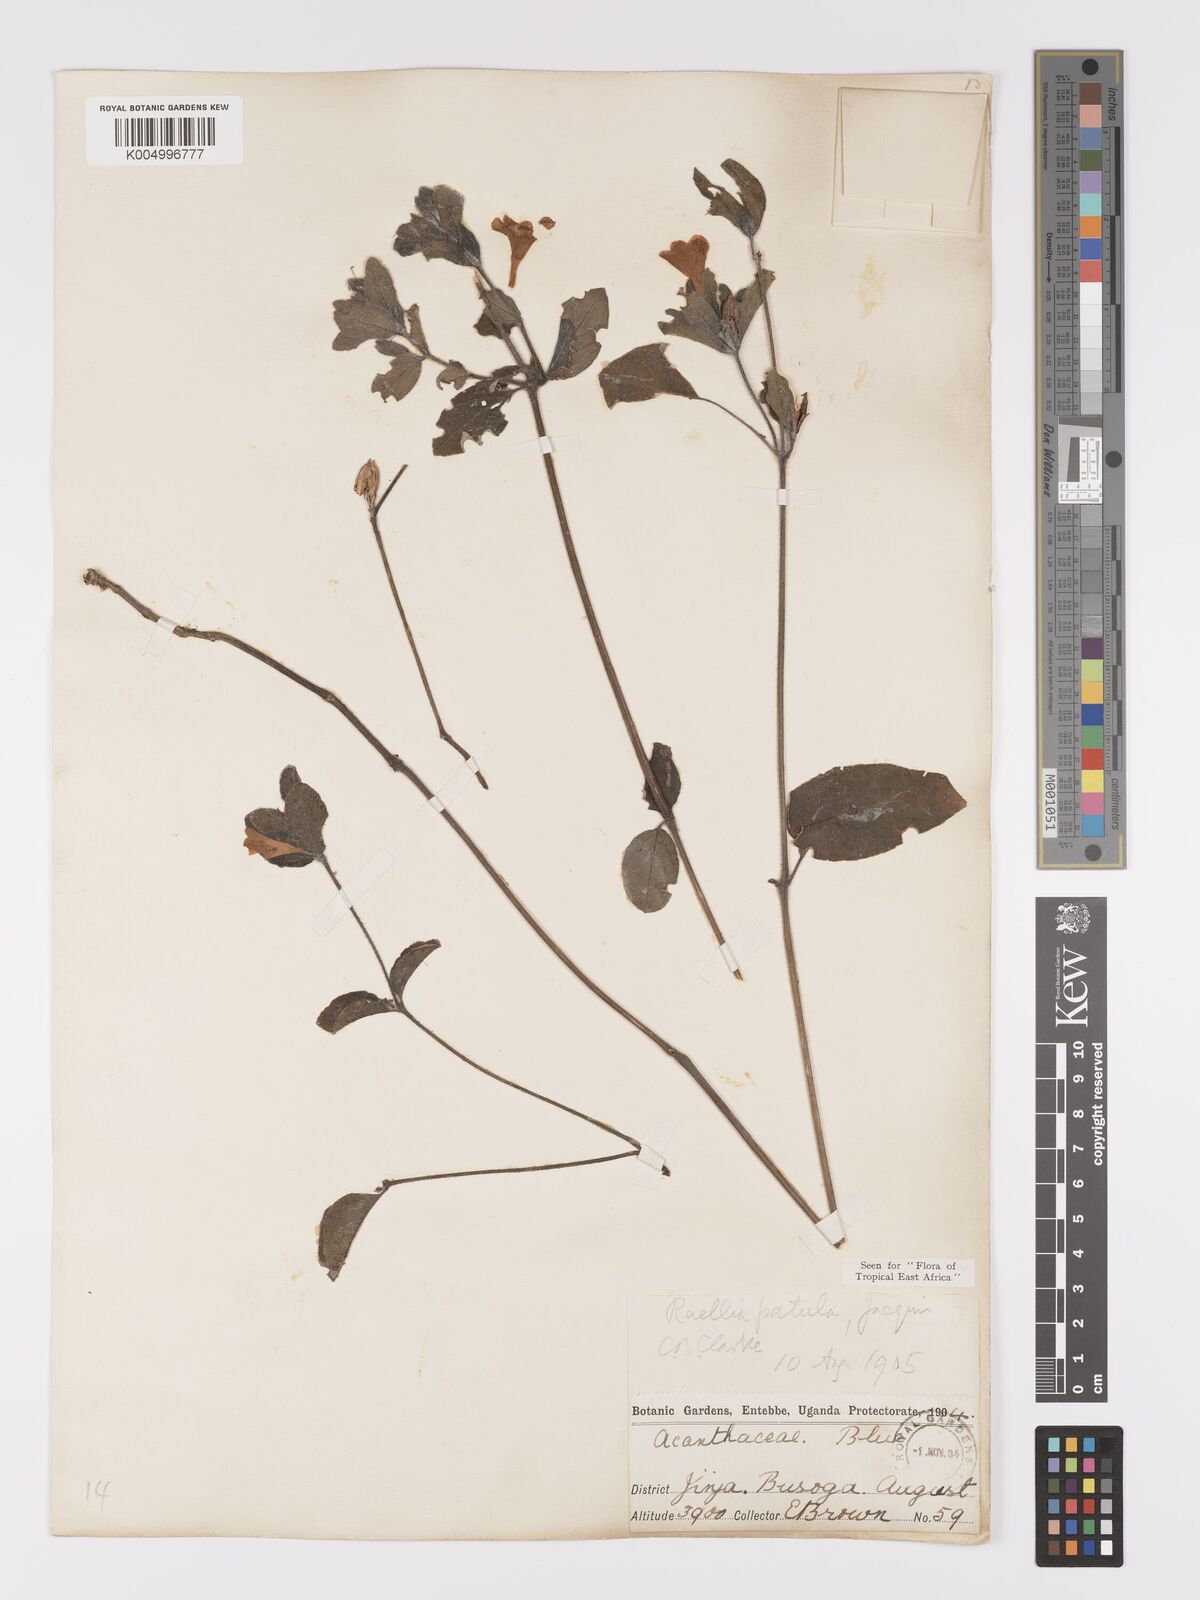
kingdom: Plantae
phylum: Tracheophyta
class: Magnoliopsida
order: Lamiales
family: Acanthaceae
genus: Ruellia
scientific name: Ruellia patula
